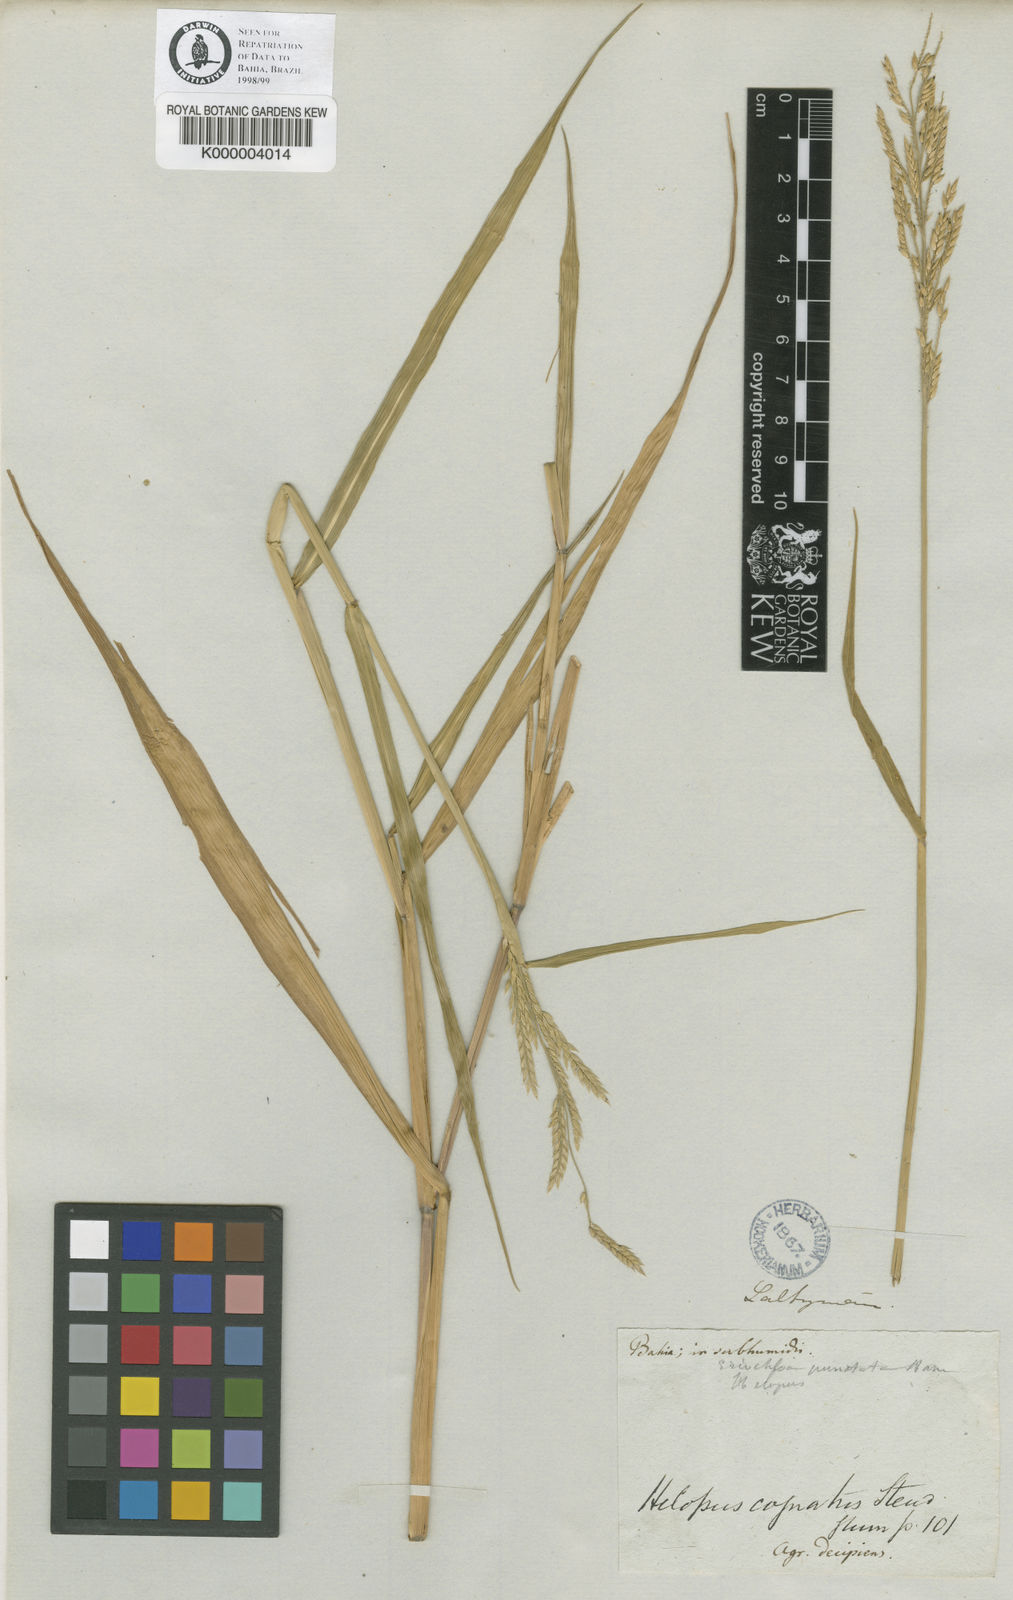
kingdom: Plantae
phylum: Tracheophyta
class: Liliopsida
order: Poales
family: Poaceae
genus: Eriochloa
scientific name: Eriochloa punctata
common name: Louisiana cupgrass
